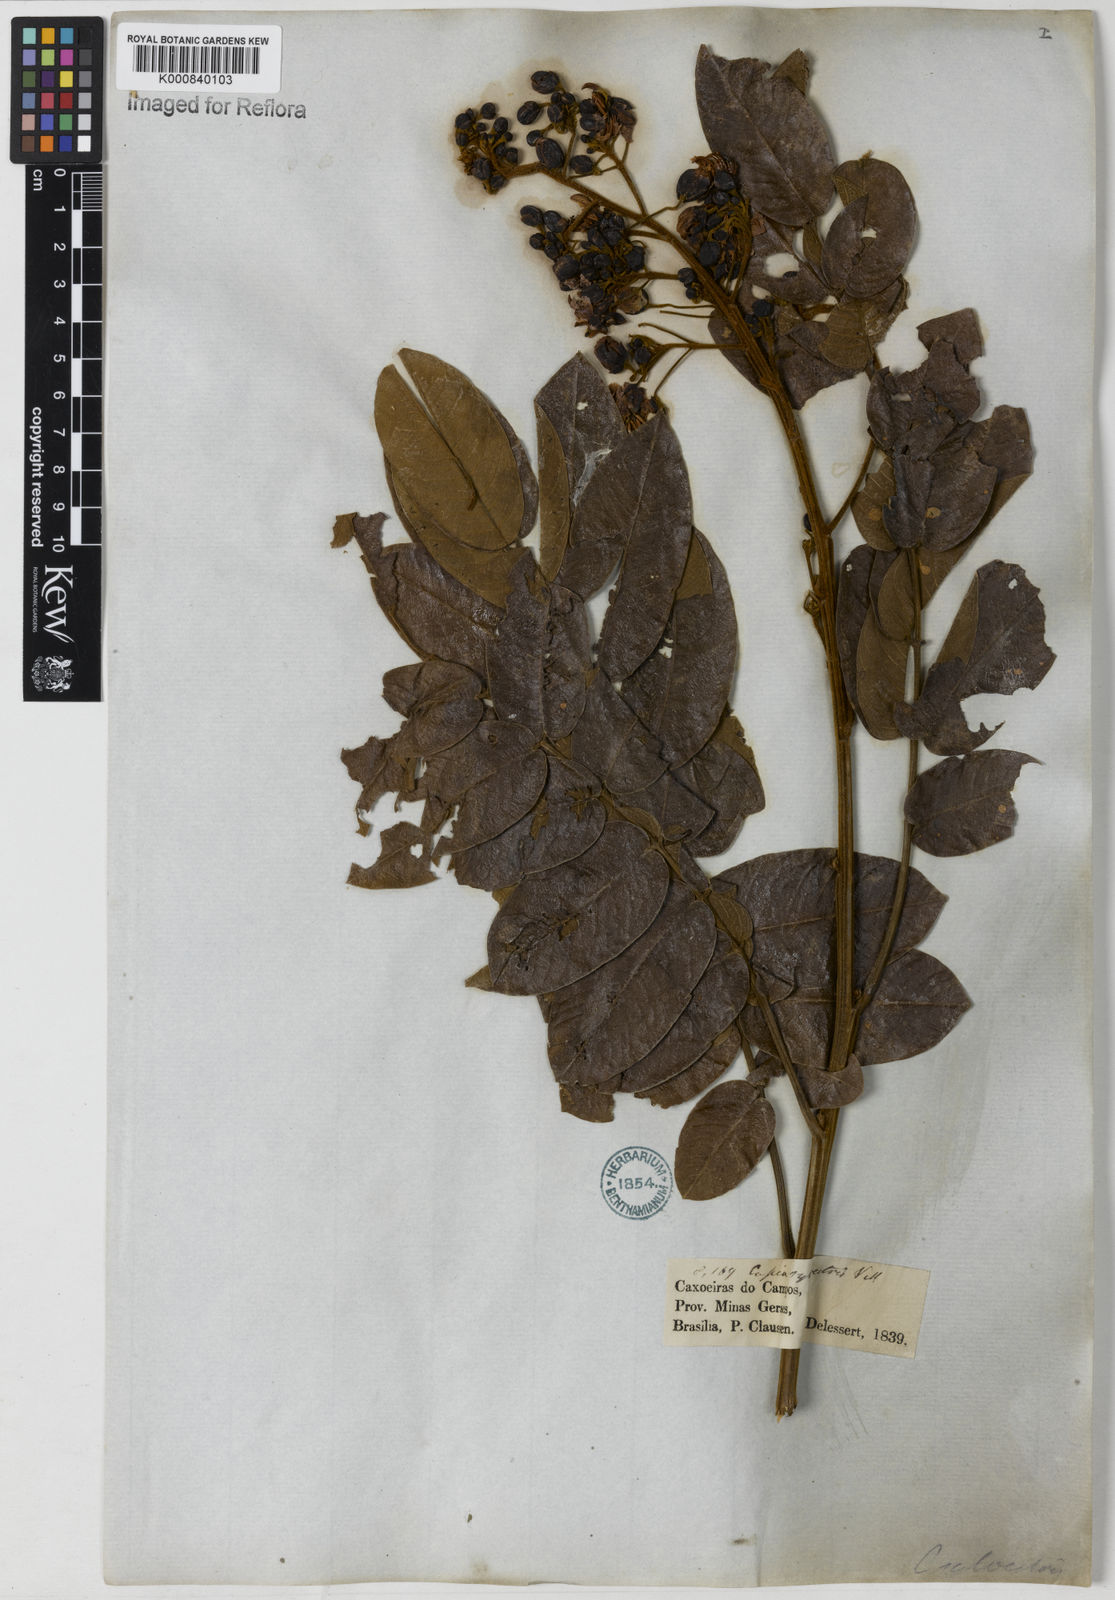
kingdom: Plantae
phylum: Tracheophyta
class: Magnoliopsida
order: Fabales
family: Fabaceae
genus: Senna
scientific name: Senna silvestris
